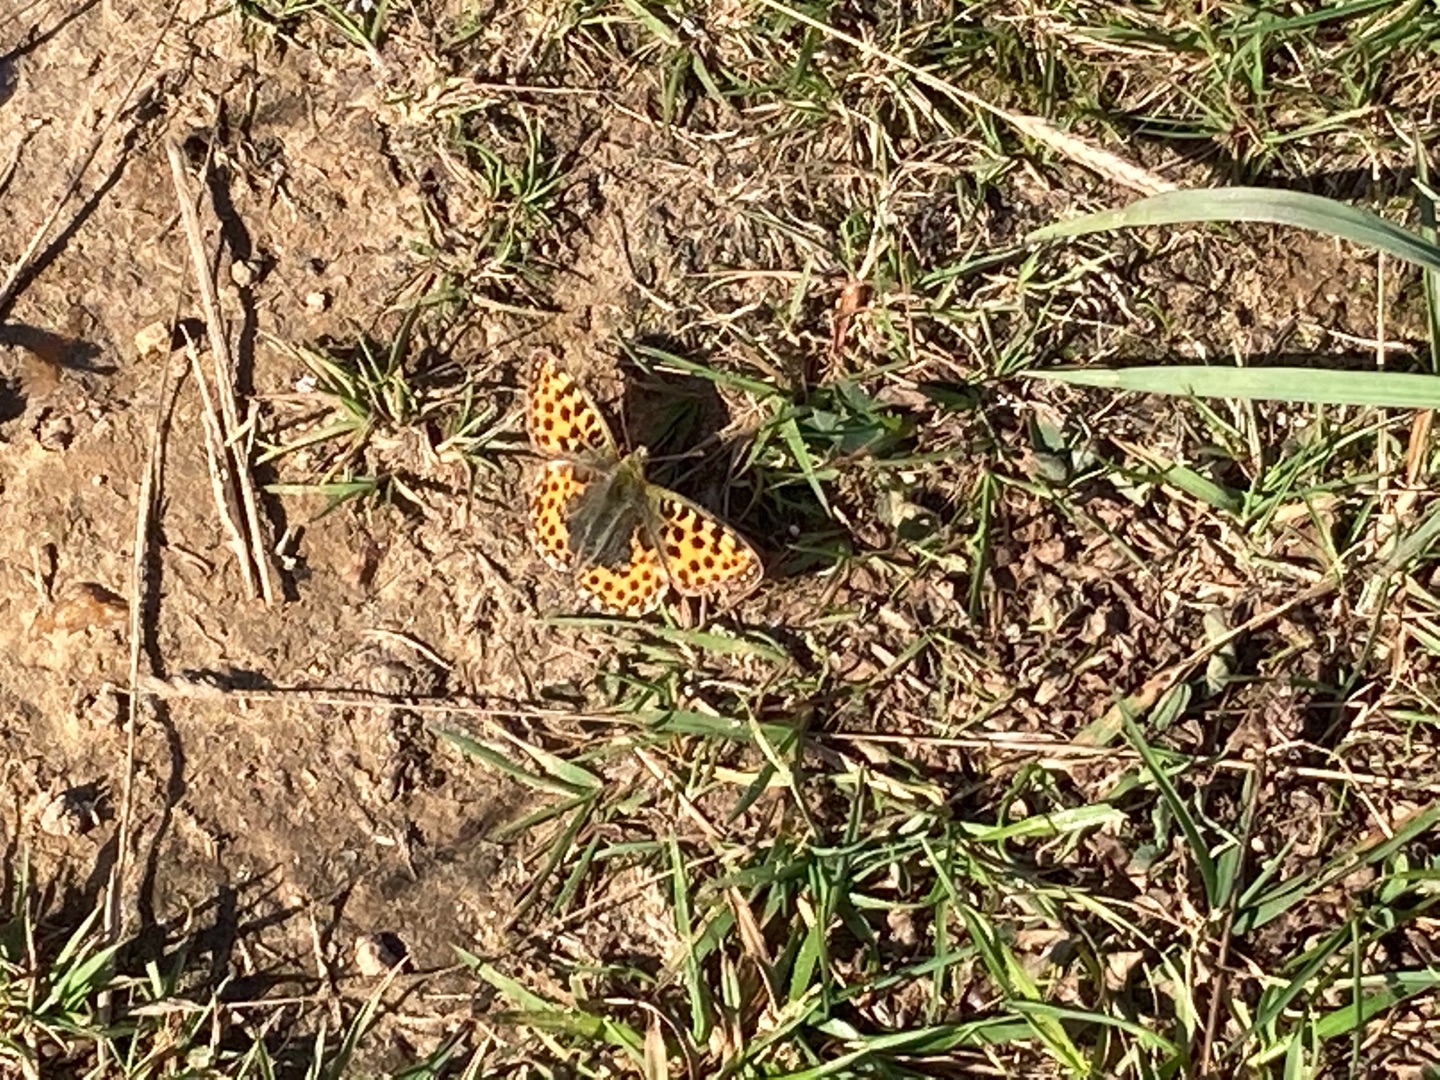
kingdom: Animalia
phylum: Arthropoda
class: Insecta
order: Lepidoptera
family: Nymphalidae
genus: Issoria
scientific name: Issoria lathonia
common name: Storplettet perlemorsommerfugl
